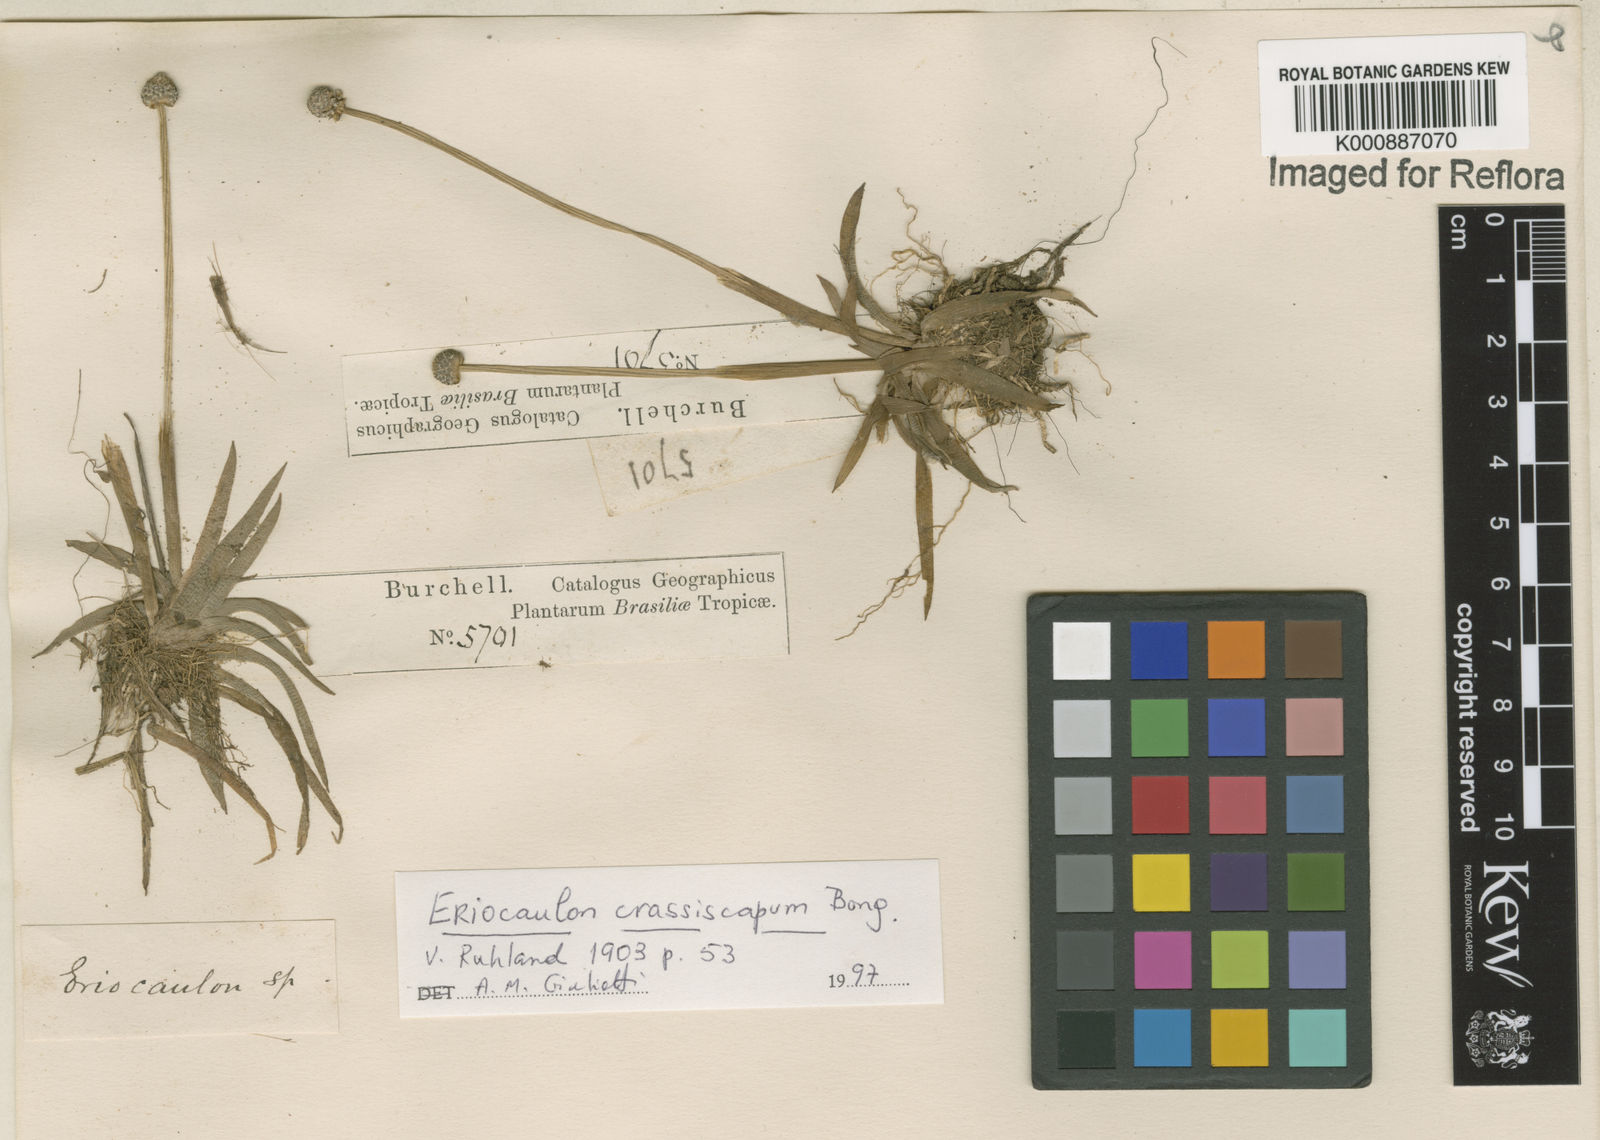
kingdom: Plantae
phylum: Tracheophyta
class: Liliopsida
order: Poales
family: Eriocaulaceae
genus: Eriocaulon
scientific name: Eriocaulon crassiscapum
